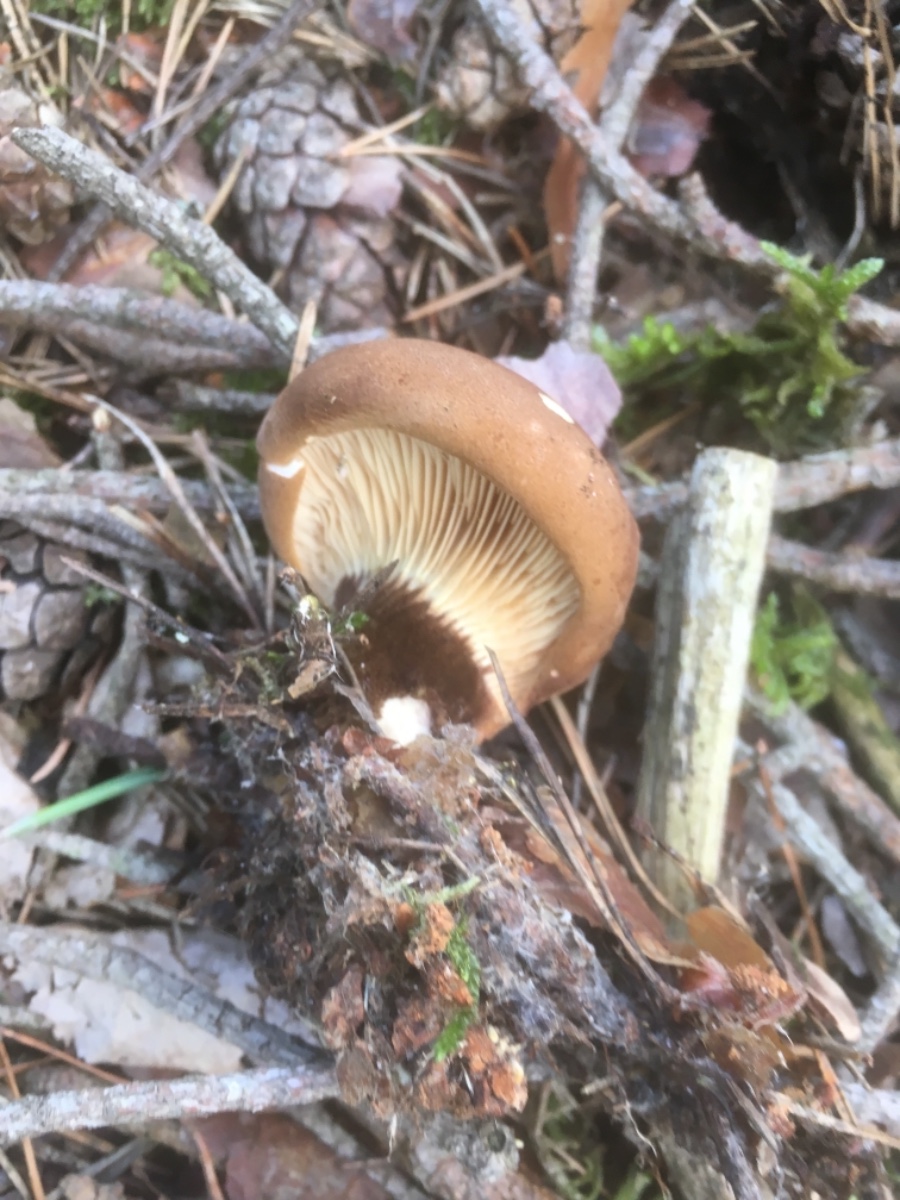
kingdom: Fungi
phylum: Basidiomycota
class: Agaricomycetes
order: Boletales
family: Tapinellaceae
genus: Tapinella
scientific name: Tapinella atrotomentosa
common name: sortfiltet viftesvamp
